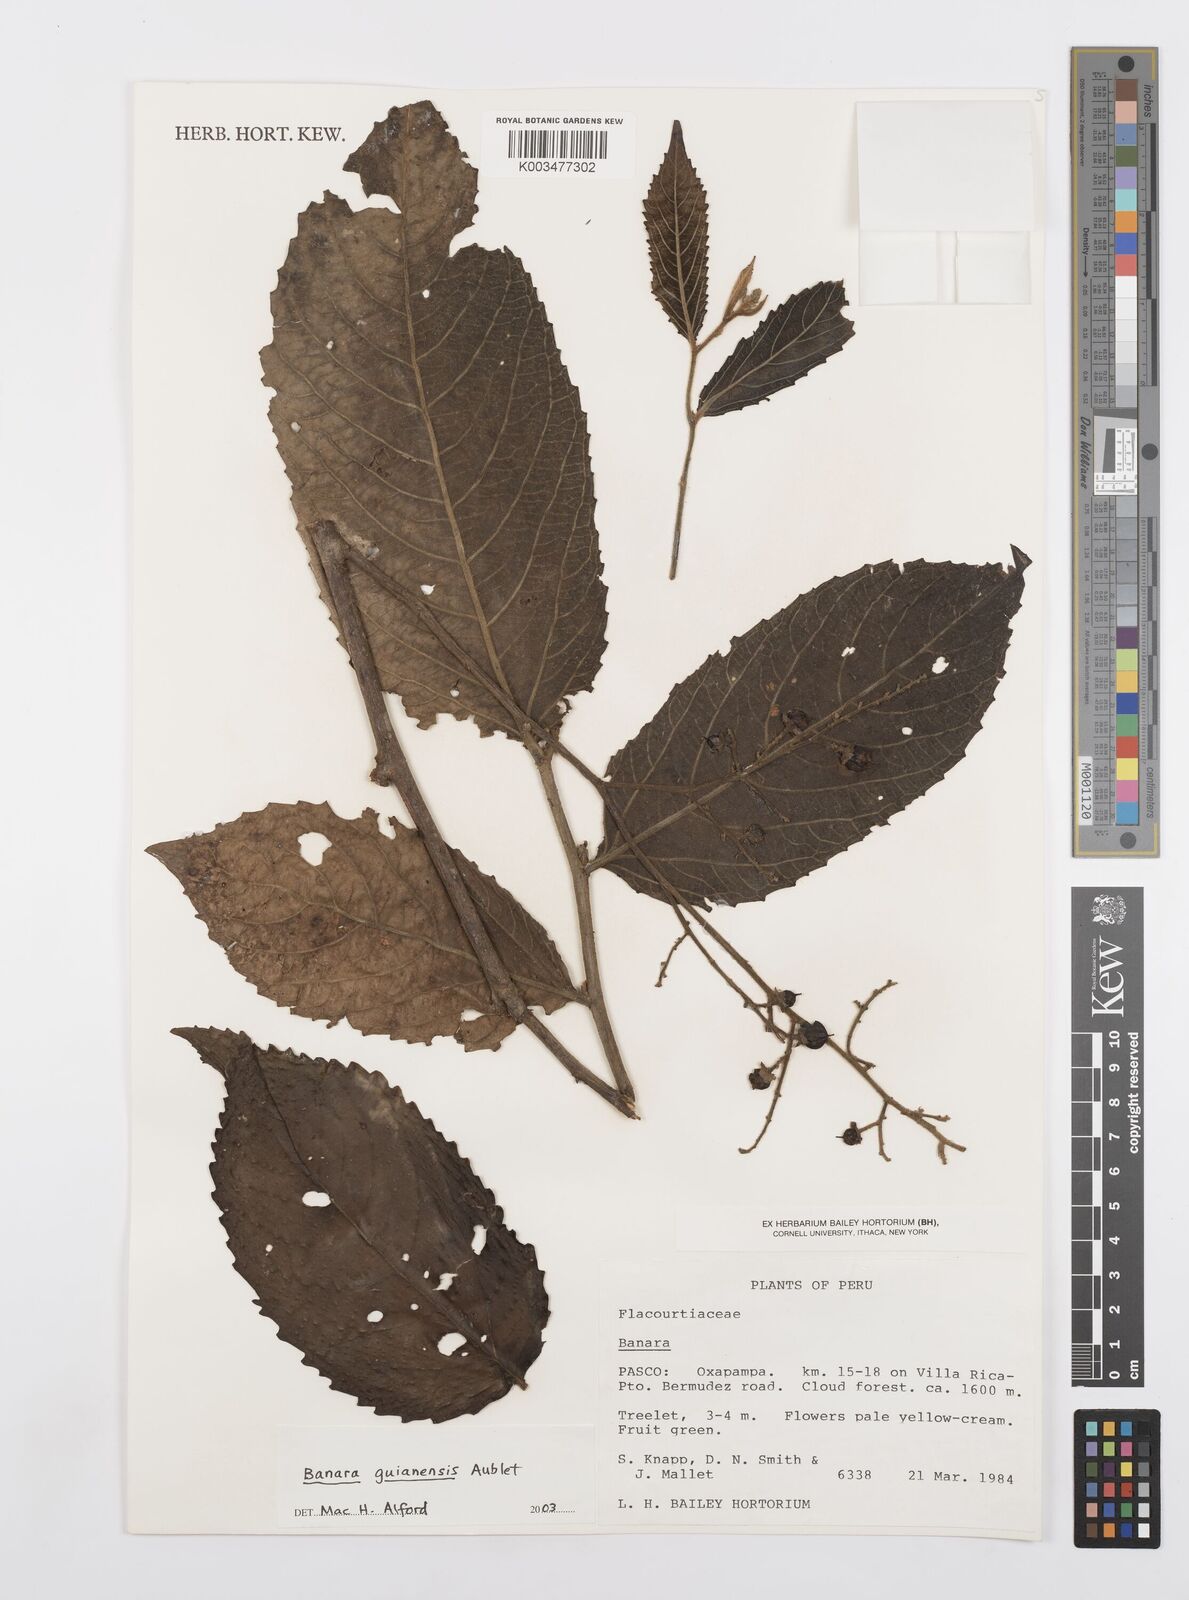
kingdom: Plantae
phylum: Tracheophyta
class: Magnoliopsida
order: Malpighiales
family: Salicaceae
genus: Banara
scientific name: Banara guianensis
